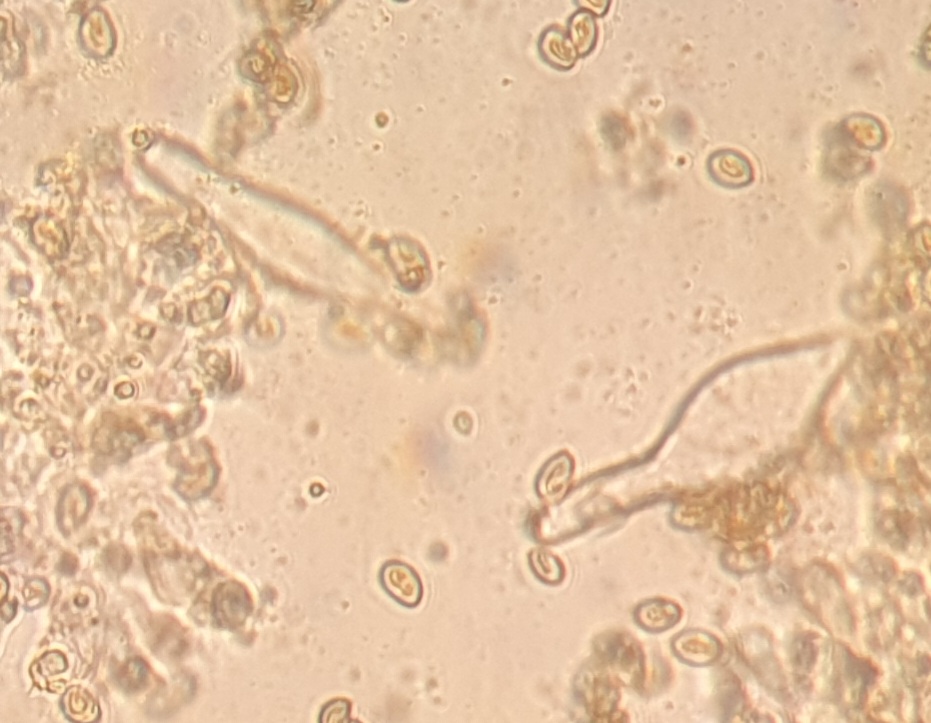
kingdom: Fungi
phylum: Basidiomycota
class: Agaricomycetes
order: Agaricales
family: Inocybaceae
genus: Inocybe
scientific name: Inocybe
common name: almindelig trævlhat
